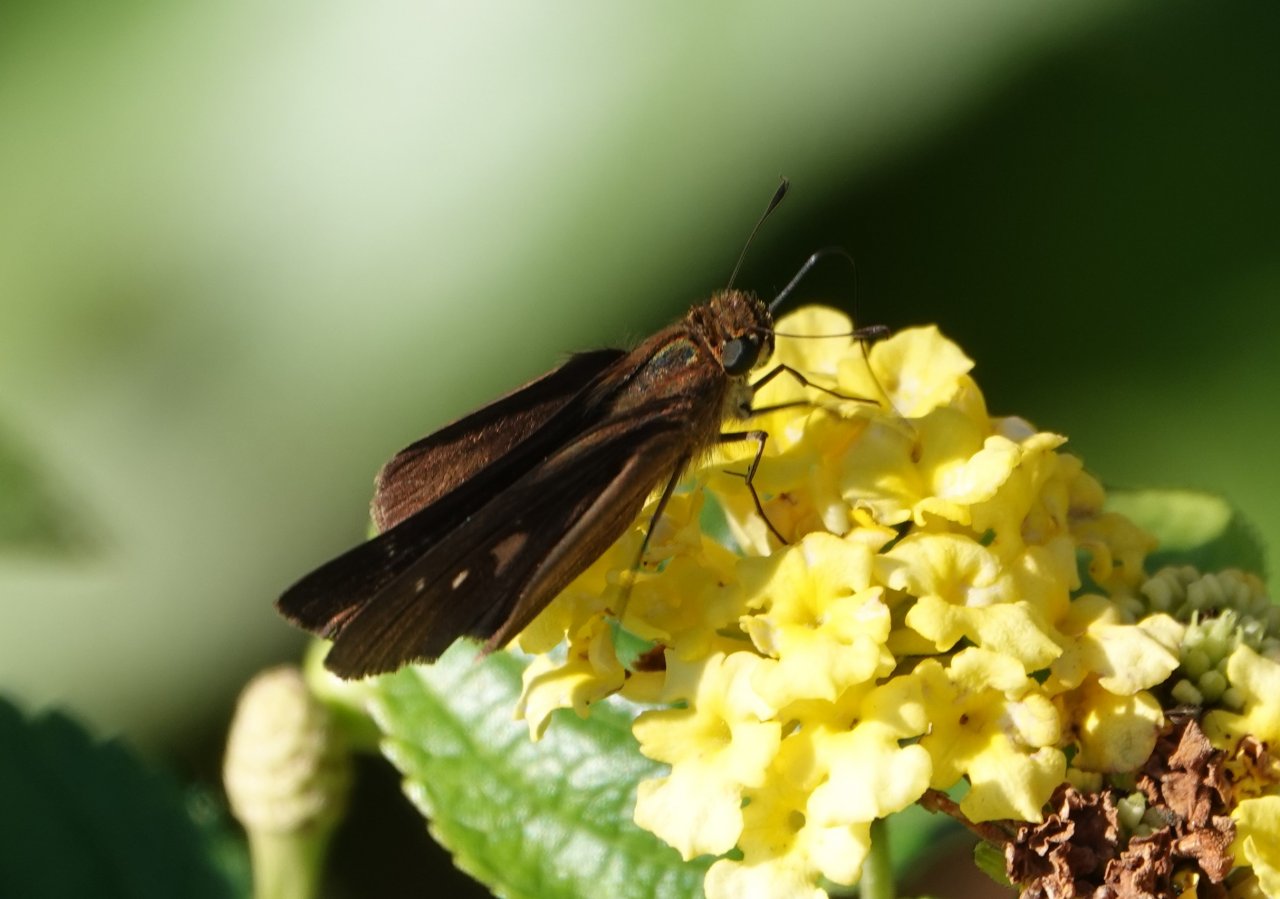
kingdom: Animalia
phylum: Arthropoda
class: Insecta
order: Lepidoptera
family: Hesperiidae
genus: Panoquina
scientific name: Panoquina ocola
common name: Ocola Skipper
